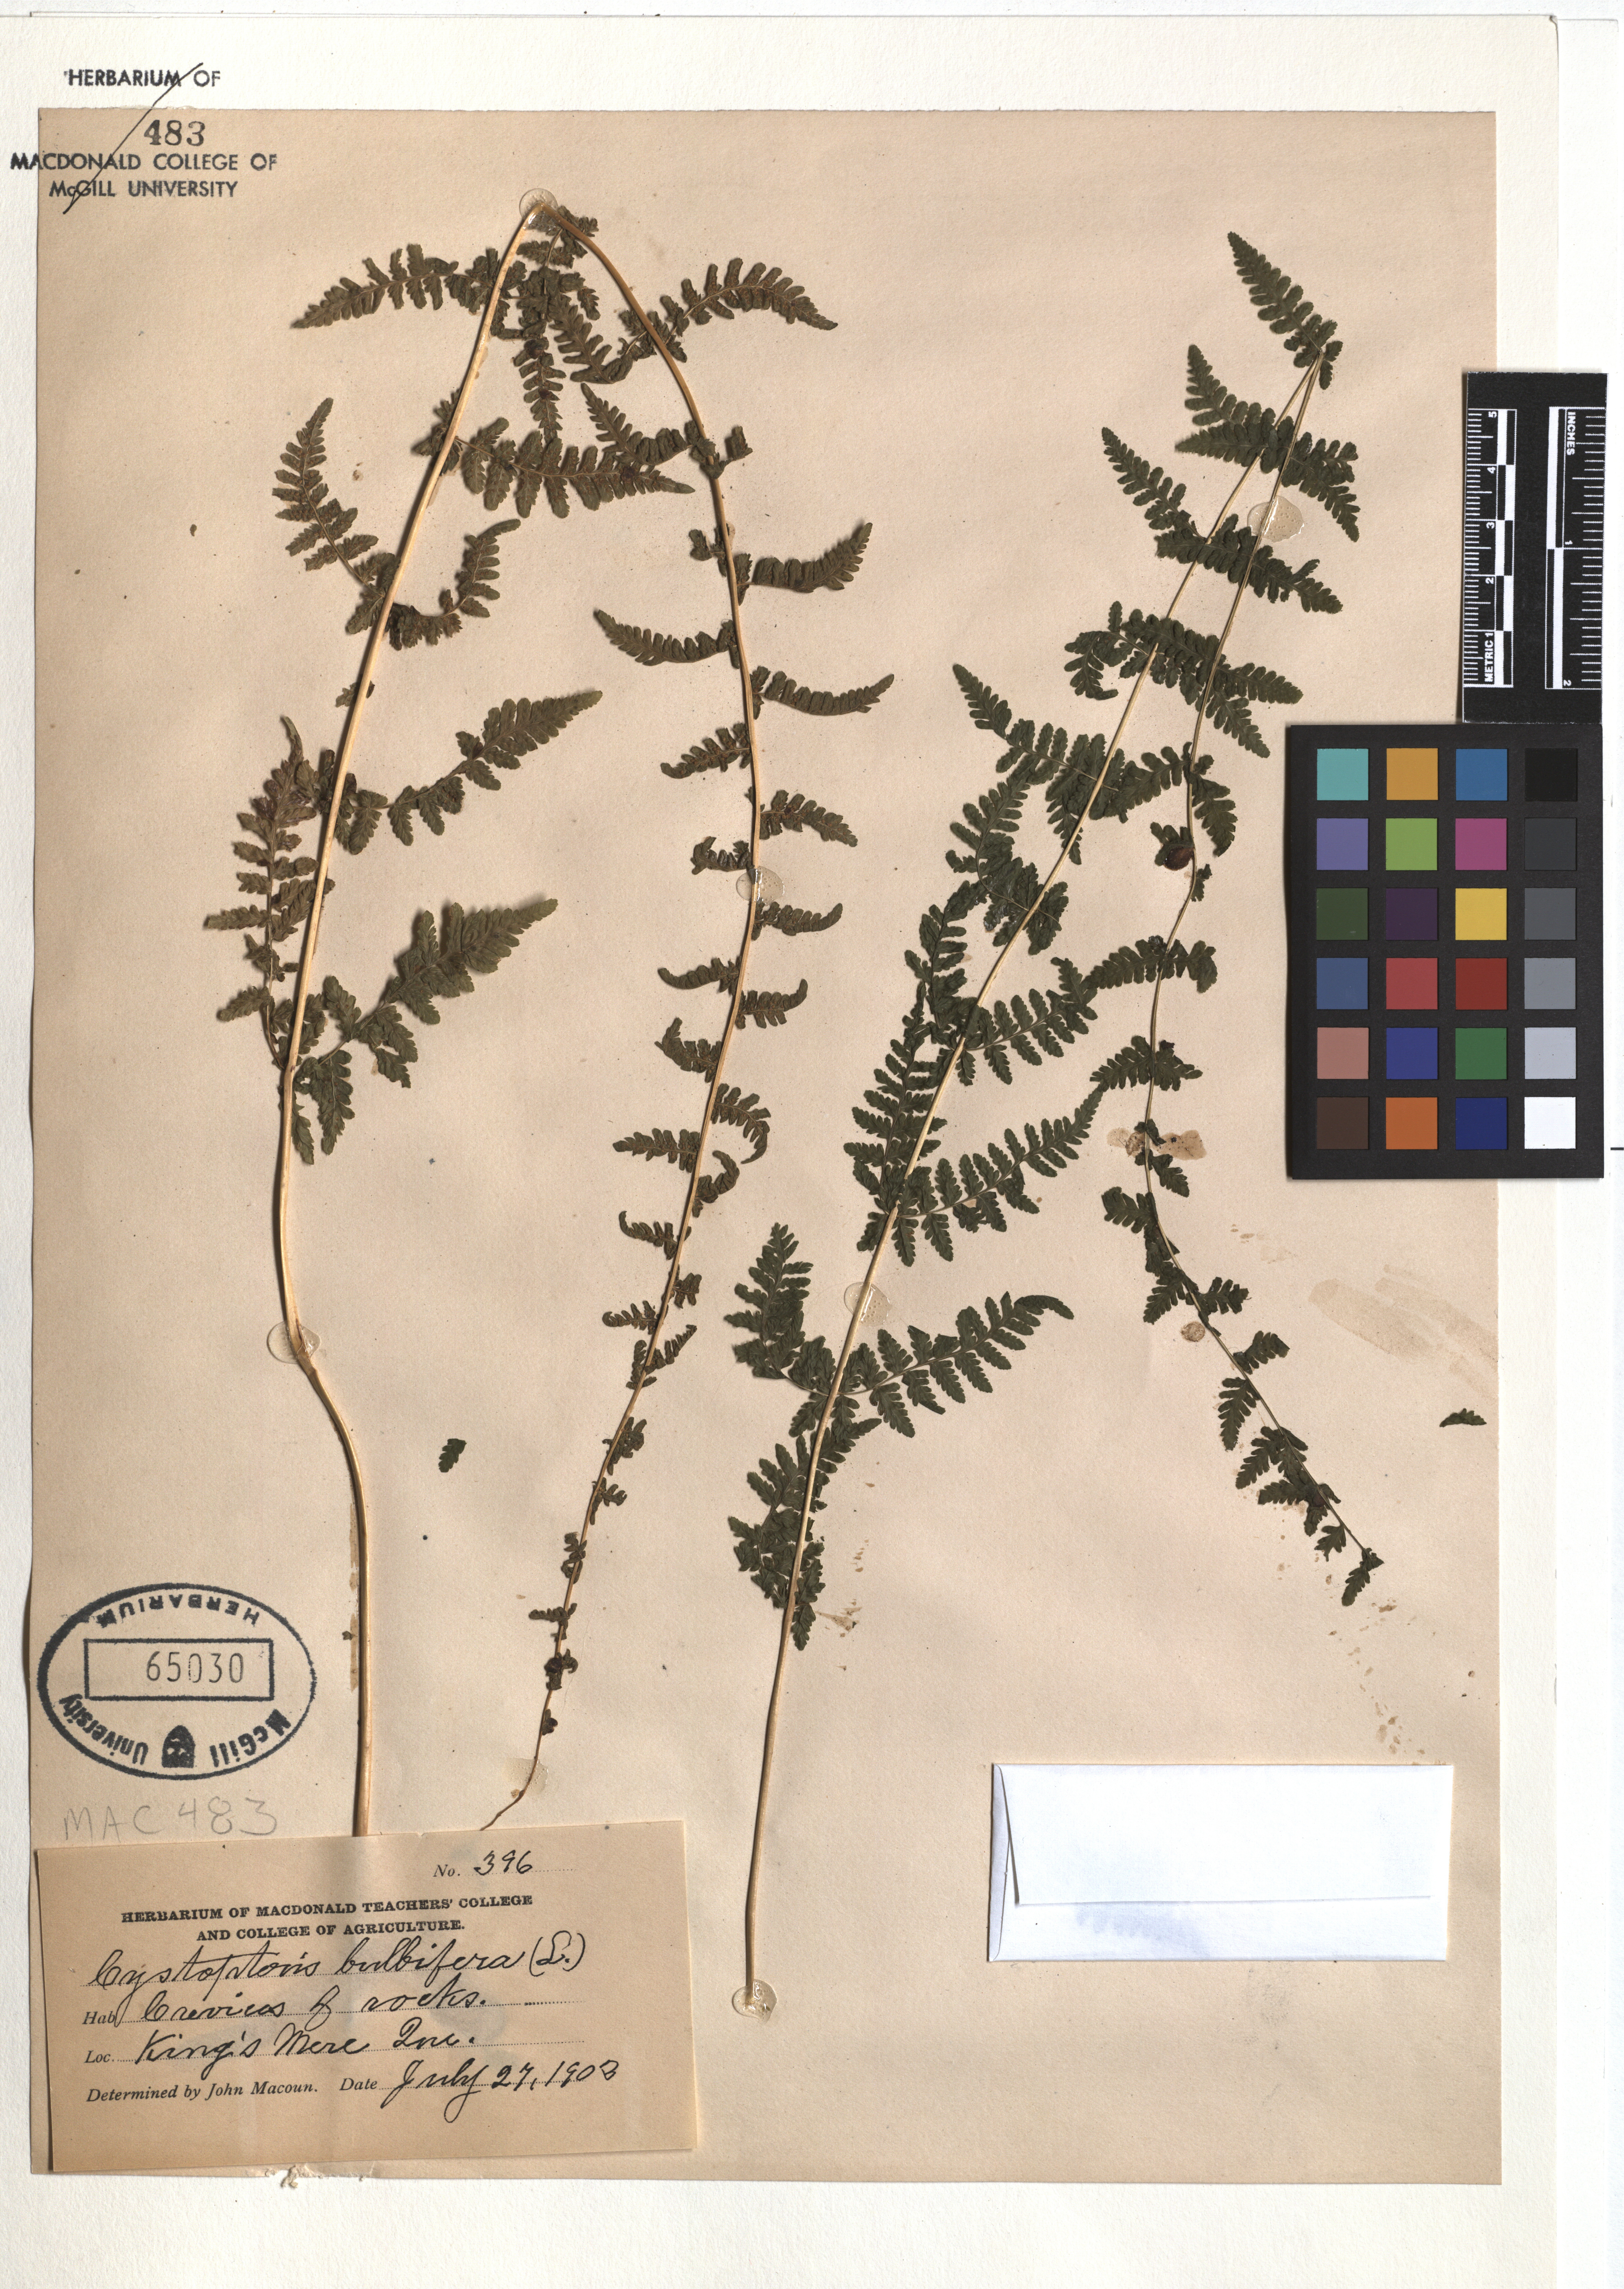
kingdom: Plantae
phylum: Tracheophyta
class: Polypodiopsida
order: Polypodiales
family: Cystopteridaceae
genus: Cystopteris
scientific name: Cystopteris bulbifera
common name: Bulblet bladder fern
